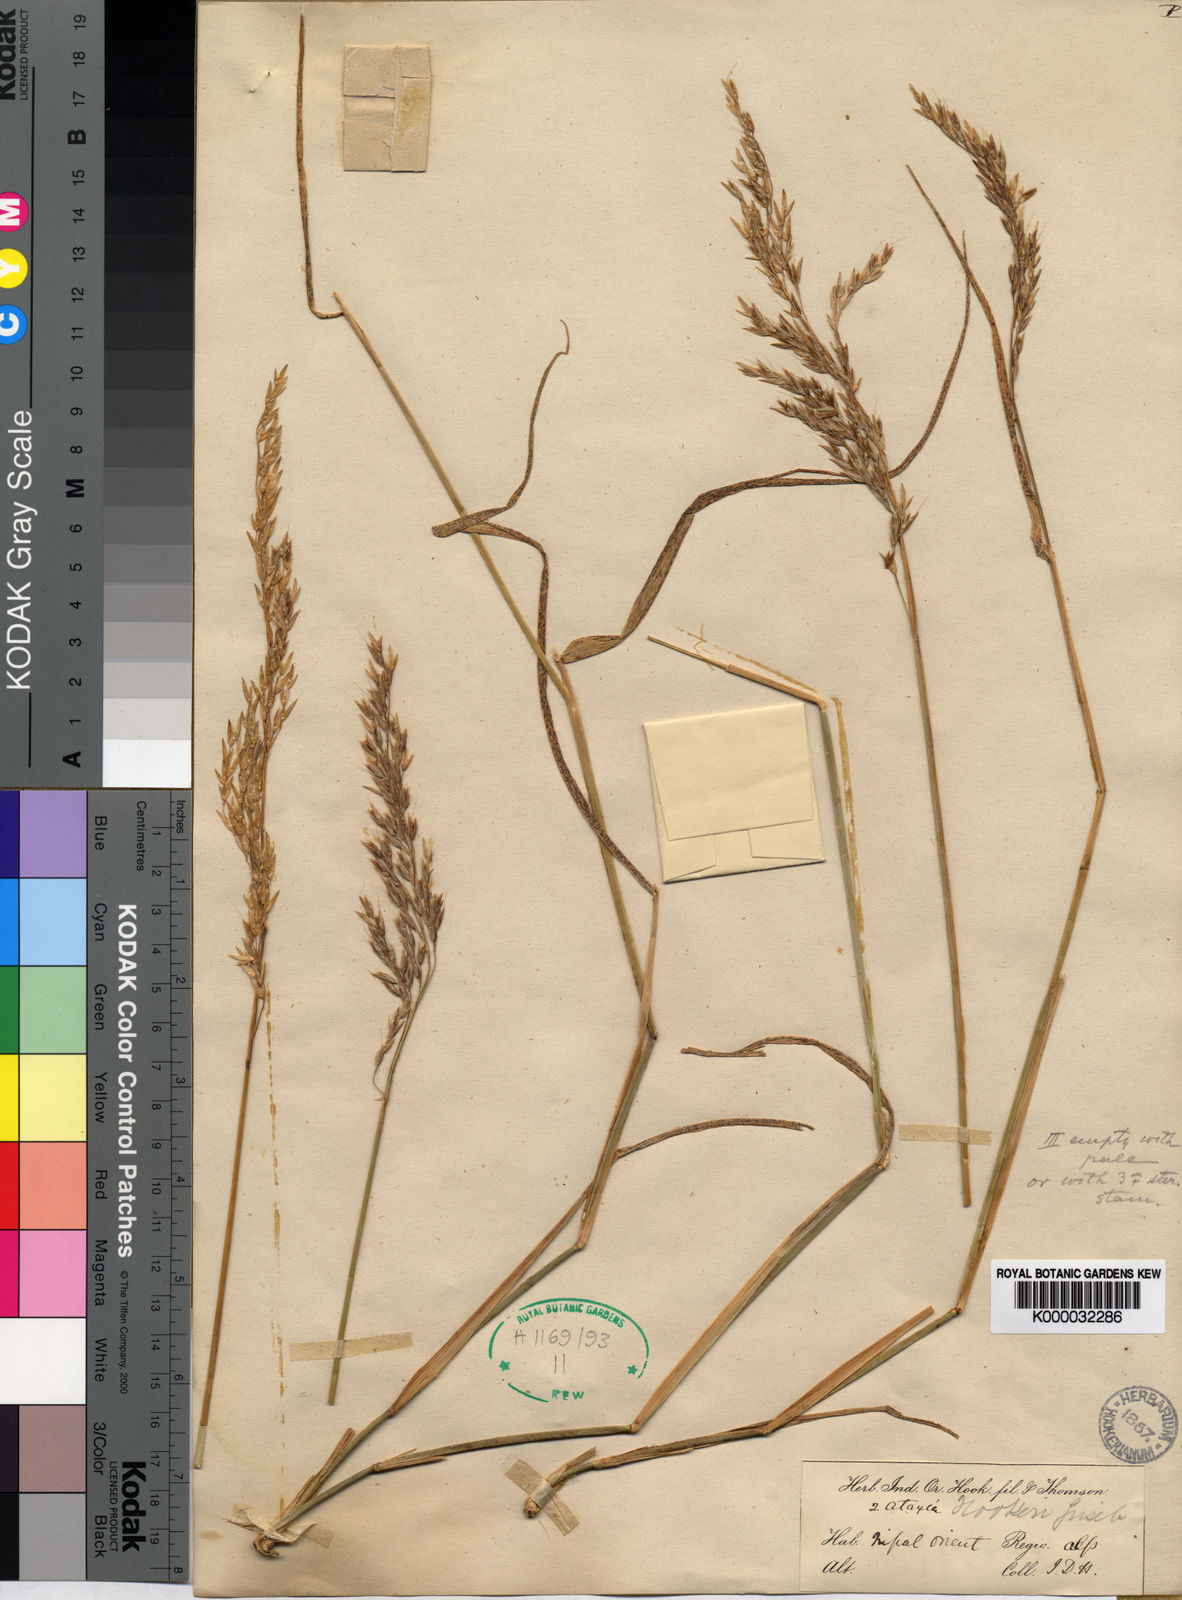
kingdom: Plantae
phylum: Tracheophyta
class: Liliopsida
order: Poales
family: Poaceae
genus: Anthoxanthum
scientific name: Anthoxanthum hookeri
